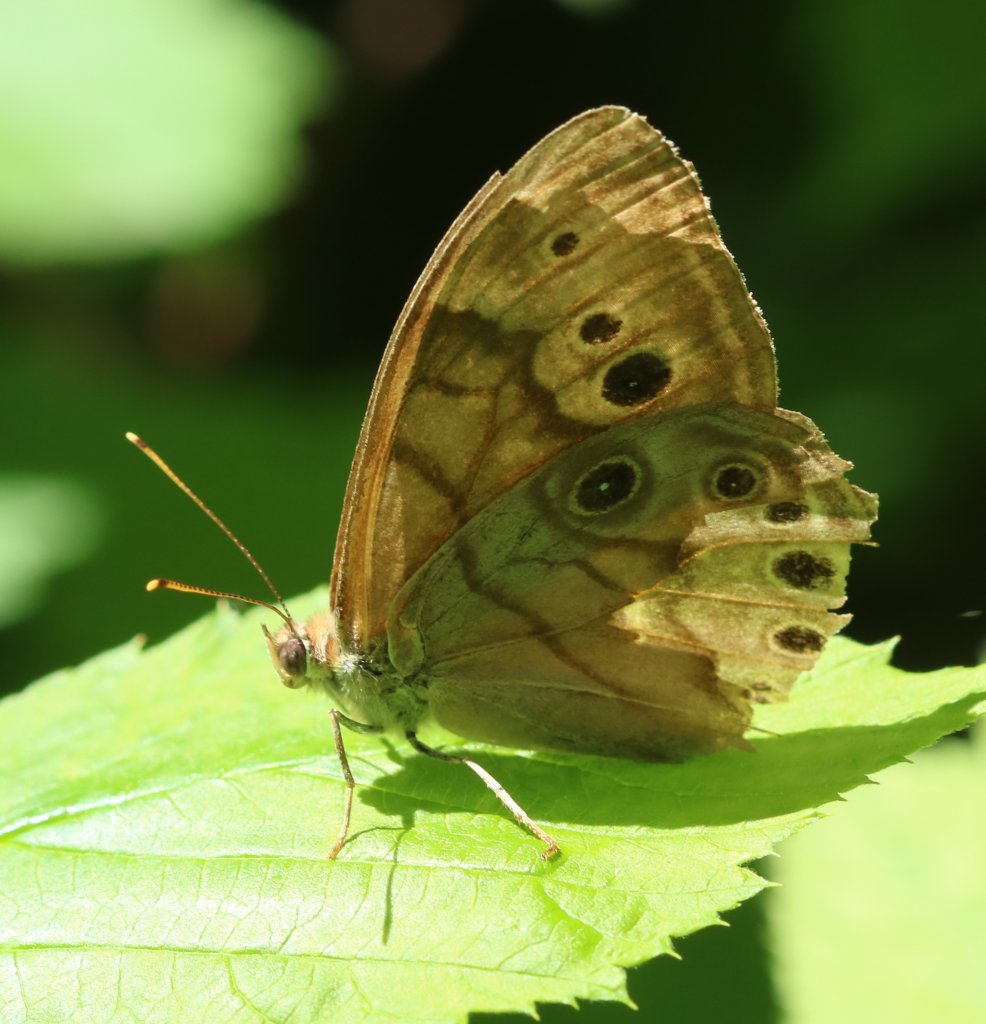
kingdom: Animalia
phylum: Arthropoda
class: Insecta
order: Lepidoptera
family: Nymphalidae
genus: Lethe
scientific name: Lethe anthedon
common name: Northern Pearly-Eye
